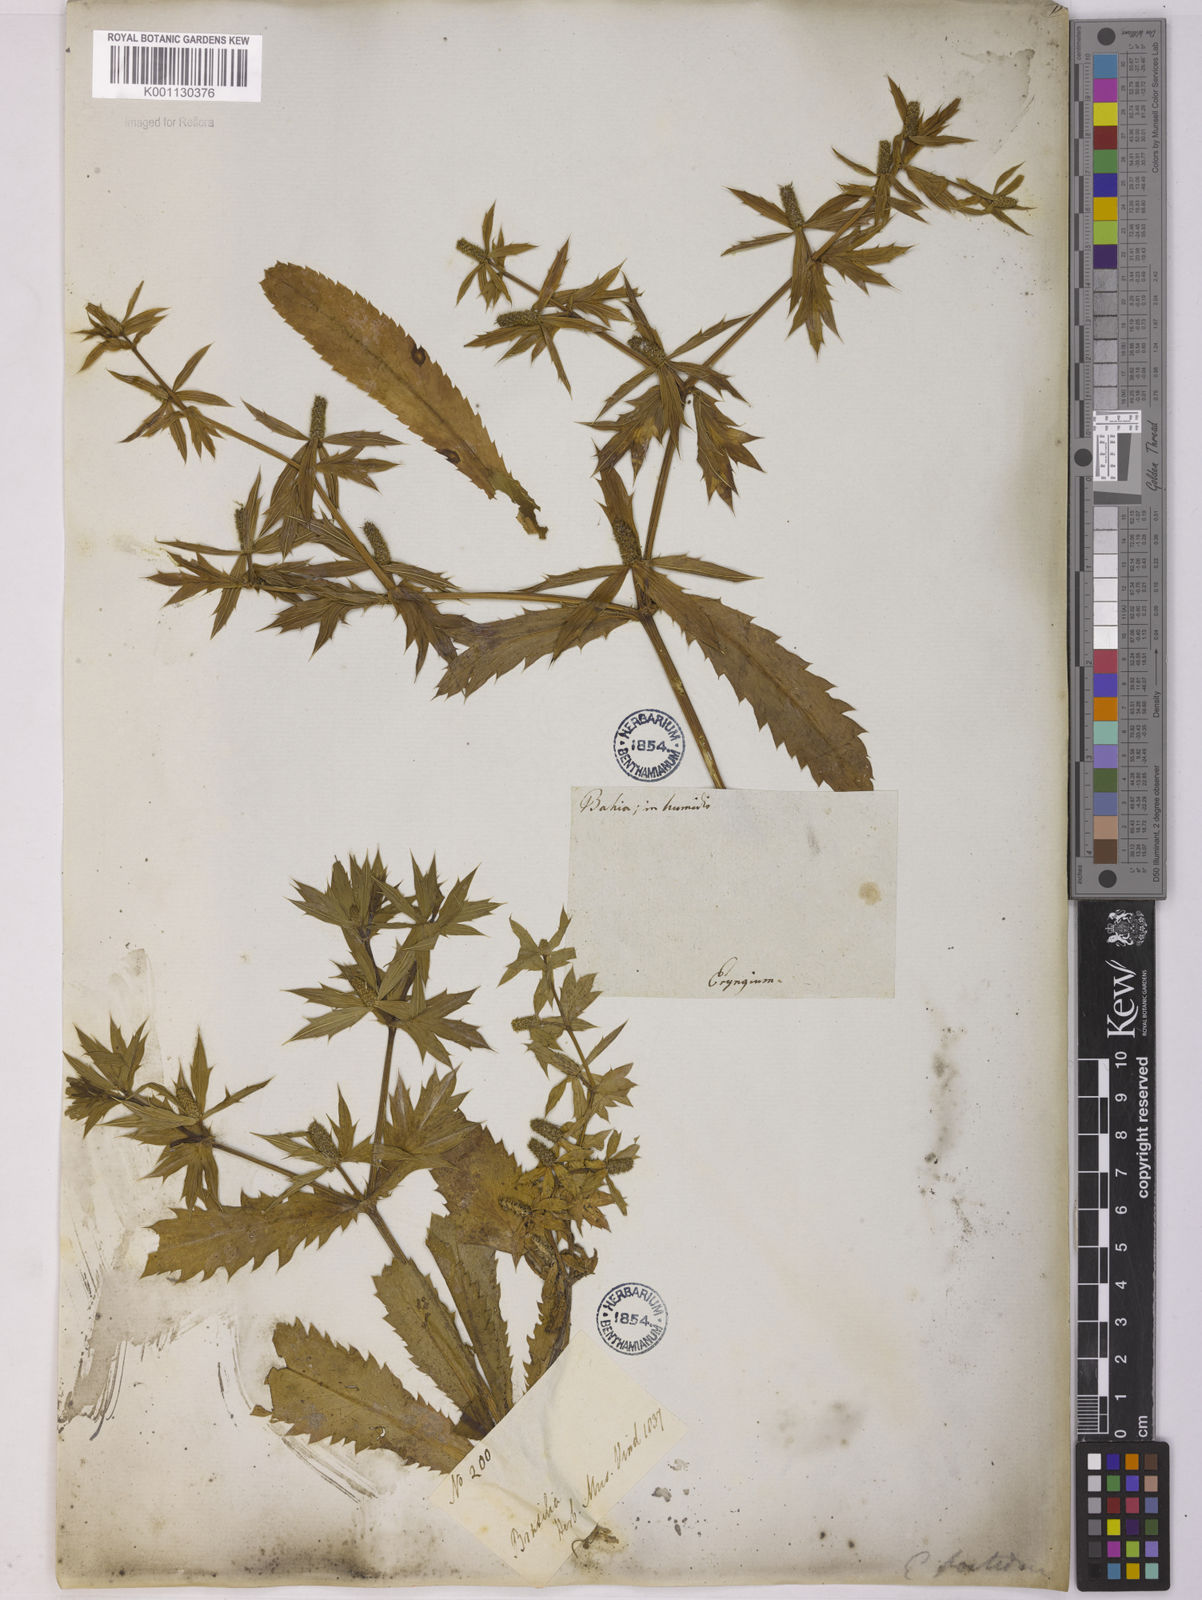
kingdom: Plantae
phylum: Tracheophyta
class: Magnoliopsida
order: Apiales
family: Apiaceae
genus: Eryngium
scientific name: Eryngium foetidum
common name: Fitweed
